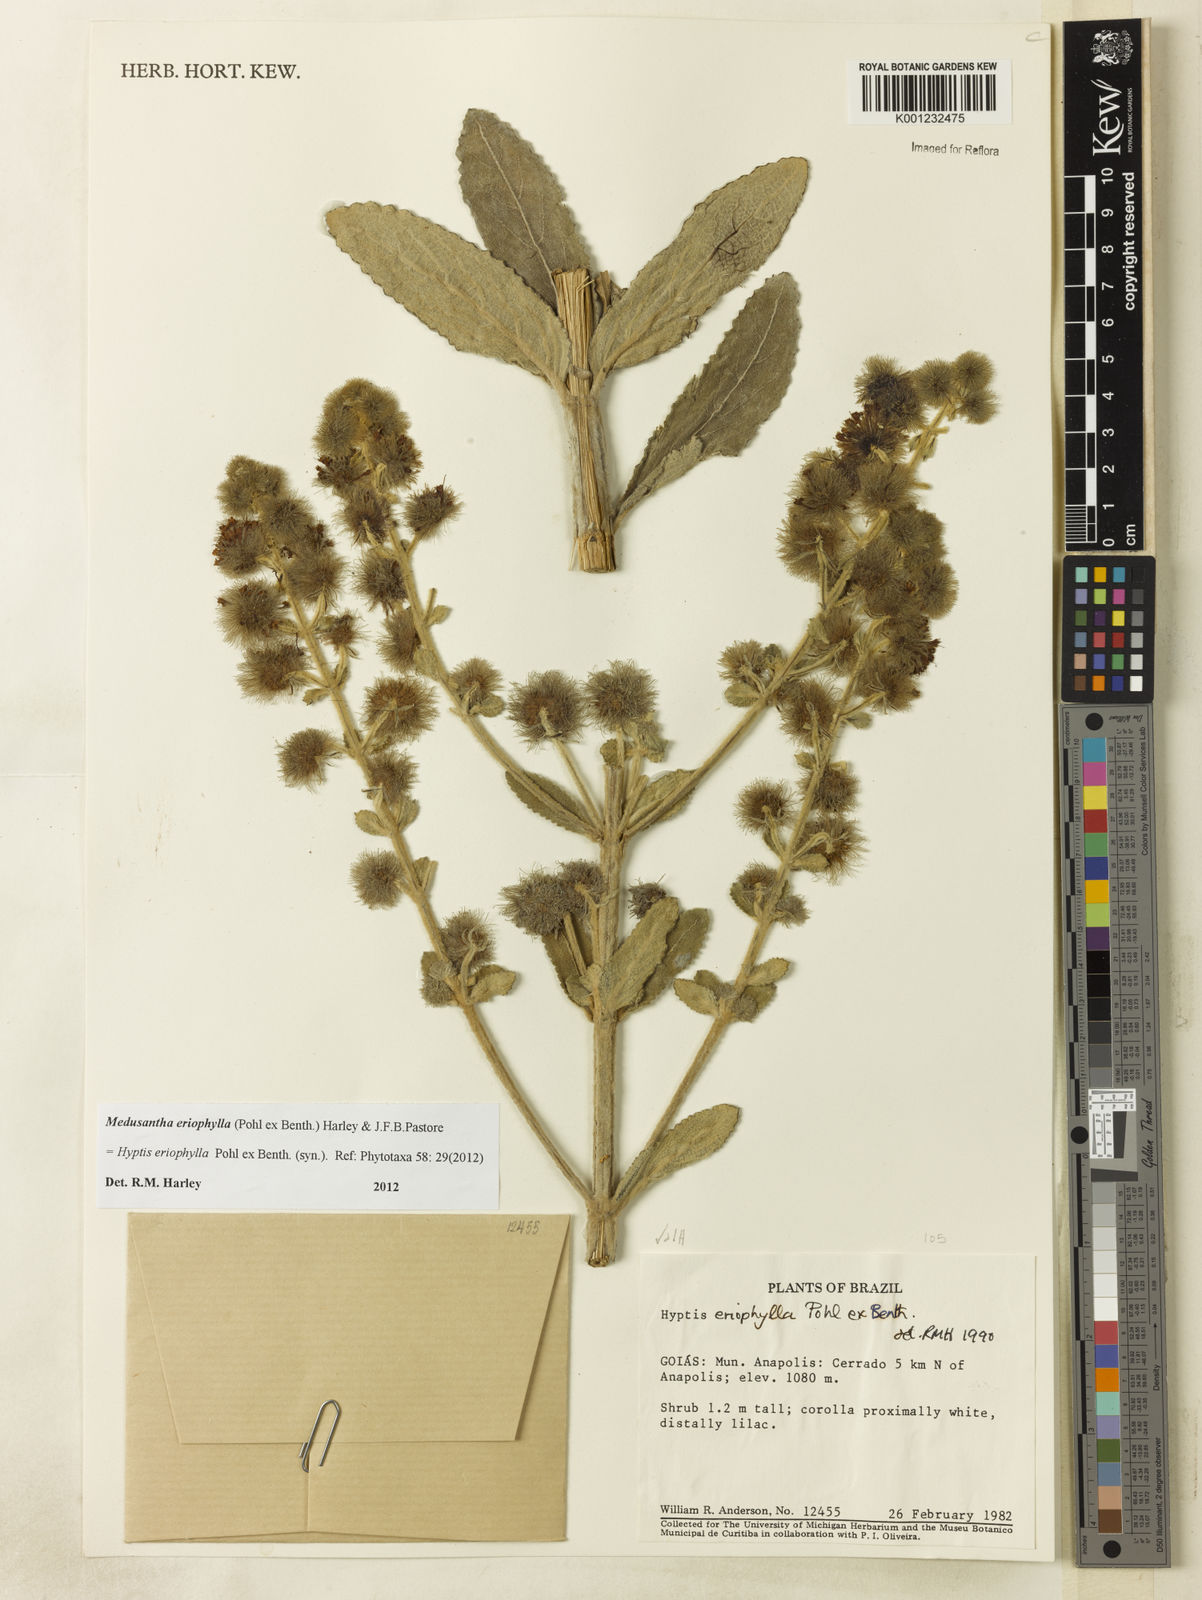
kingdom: Plantae
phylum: Tracheophyta
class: Magnoliopsida
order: Lamiales
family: Lamiaceae
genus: Medusantha
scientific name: Medusantha eriophylla
